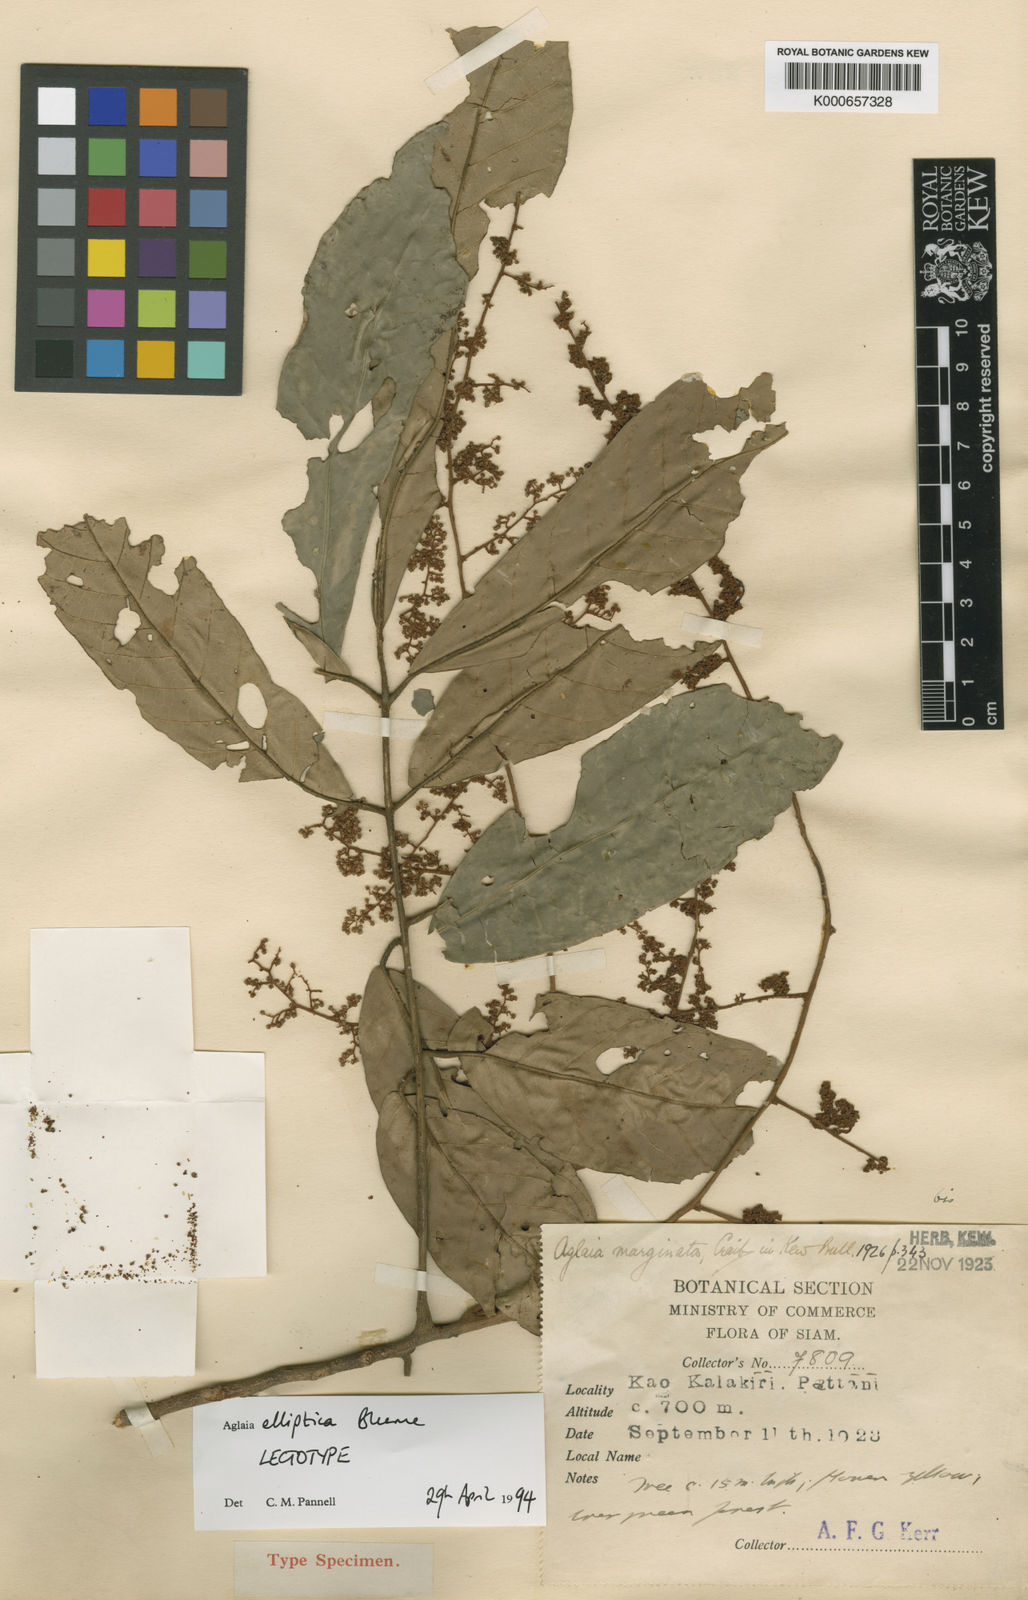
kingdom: Plantae
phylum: Tracheophyta
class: Magnoliopsida
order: Sapindales
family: Meliaceae
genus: Aglaia
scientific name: Aglaia elliptica
